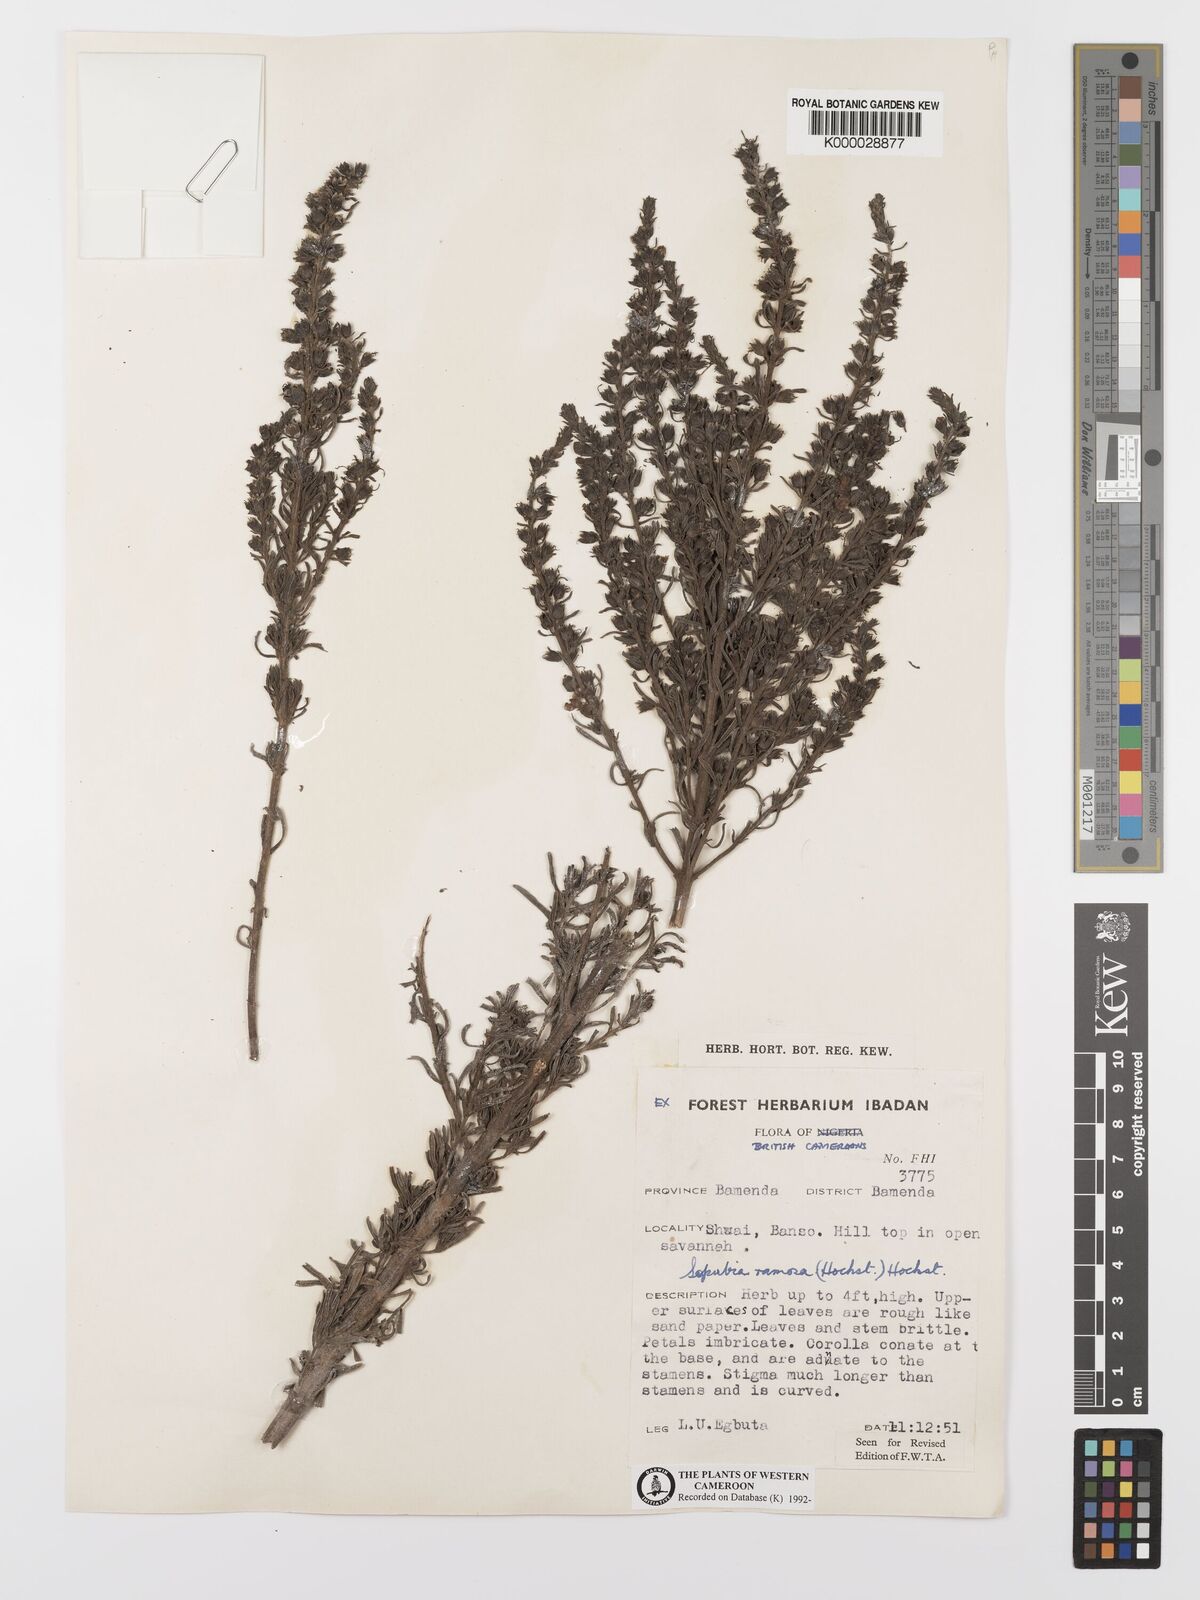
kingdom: Plantae
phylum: Tracheophyta
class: Magnoliopsida
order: Lamiales
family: Orobanchaceae
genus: Sopubia
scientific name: Sopubia ramosa
